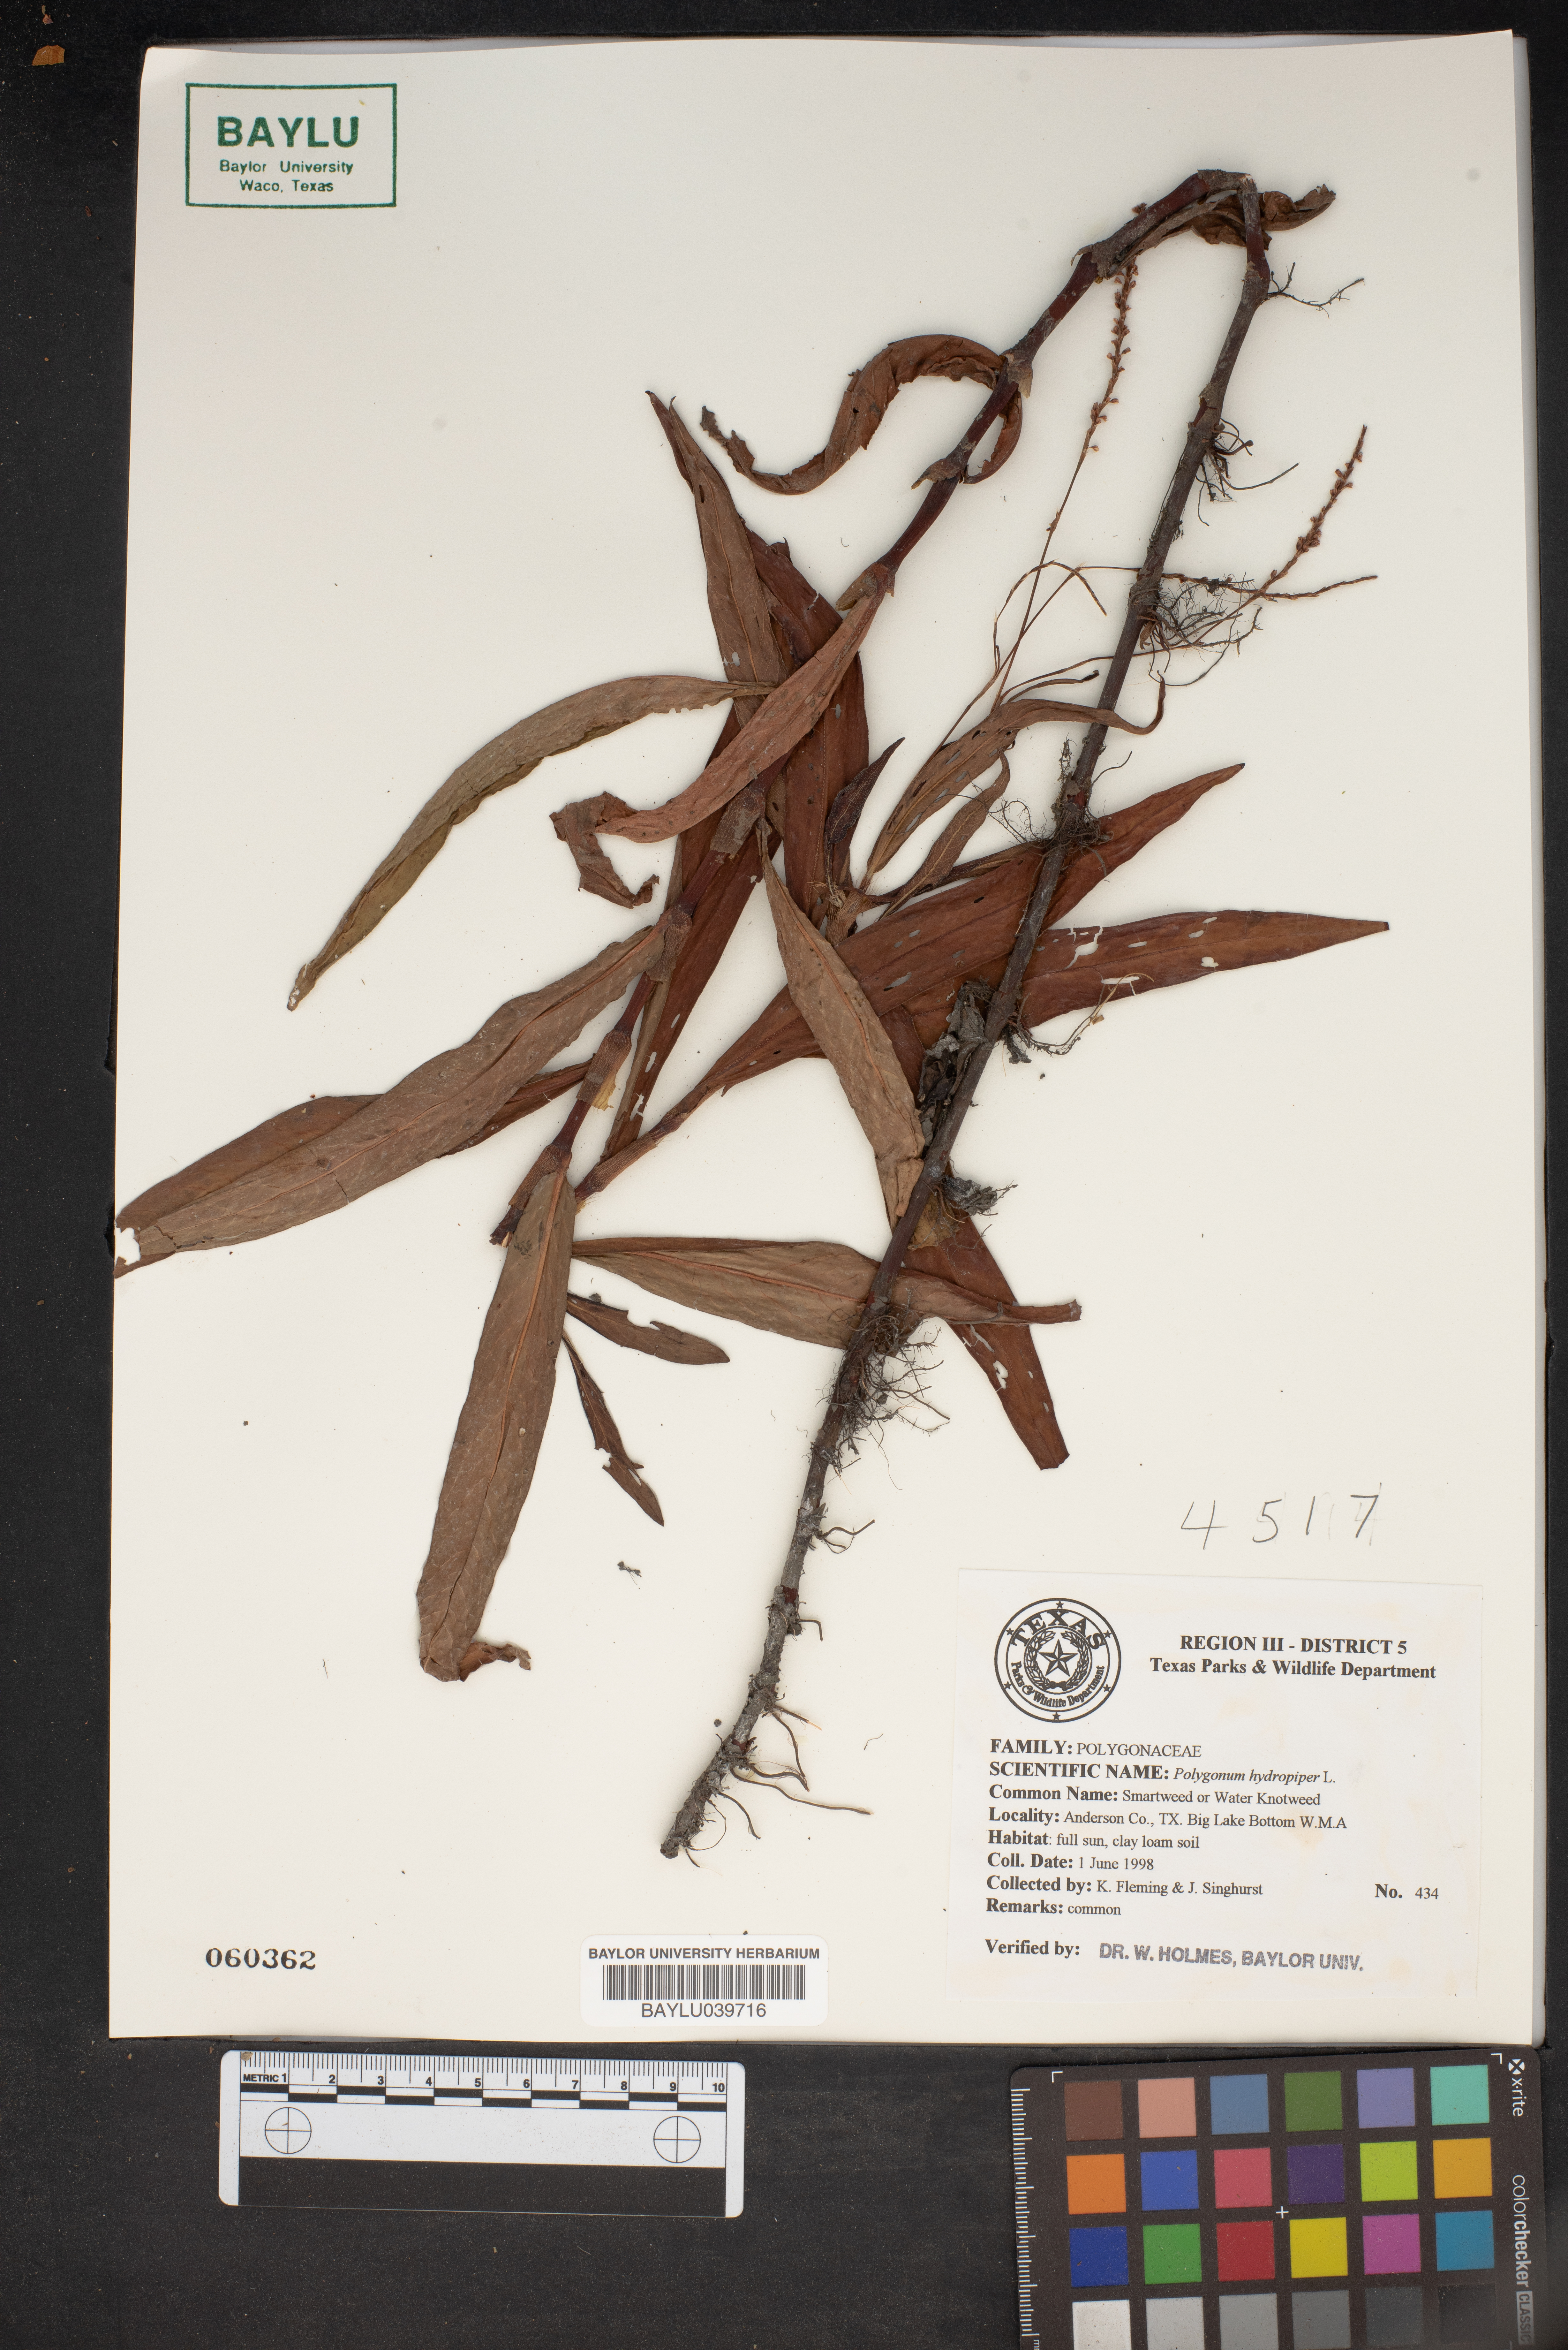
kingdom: Plantae
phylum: Tracheophyta
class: Magnoliopsida
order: Caryophyllales
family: Polygonaceae
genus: Persicaria
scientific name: Persicaria hydropiperoides
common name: Swamp smartweed
